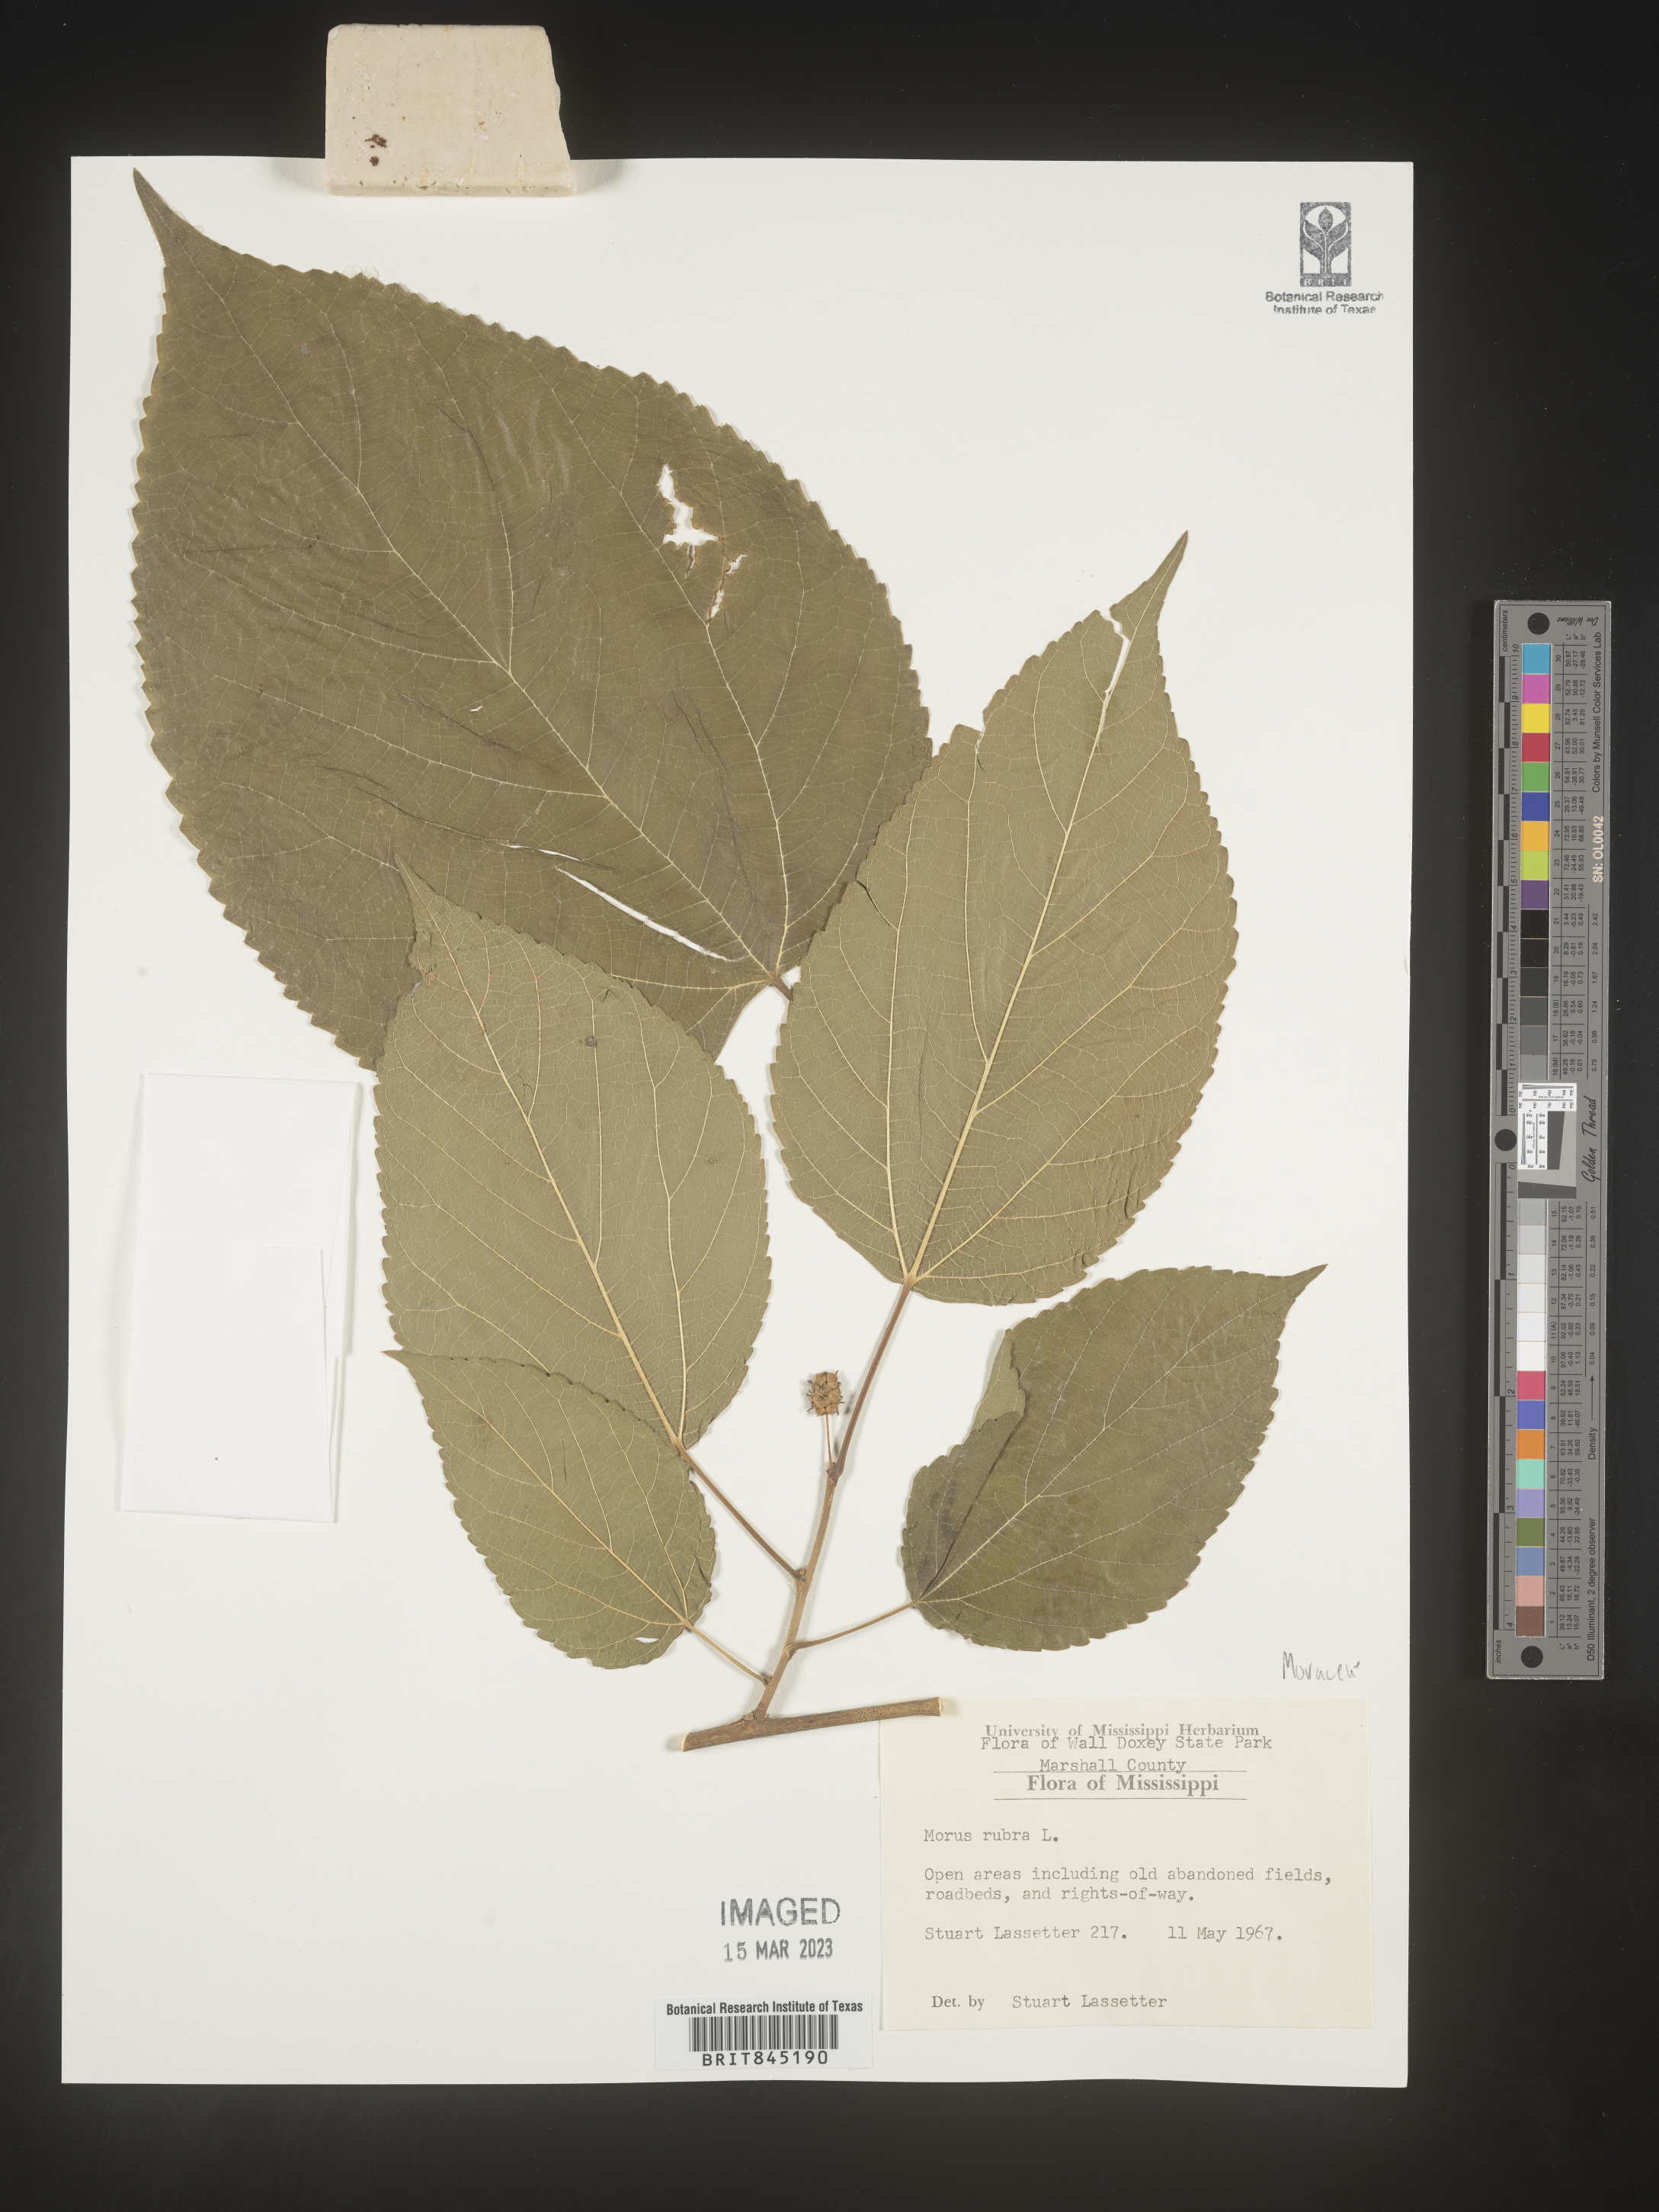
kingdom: Plantae
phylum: Tracheophyta
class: Magnoliopsida
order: Rosales
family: Moraceae
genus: Morus
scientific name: Morus rubra
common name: Red mulberry
